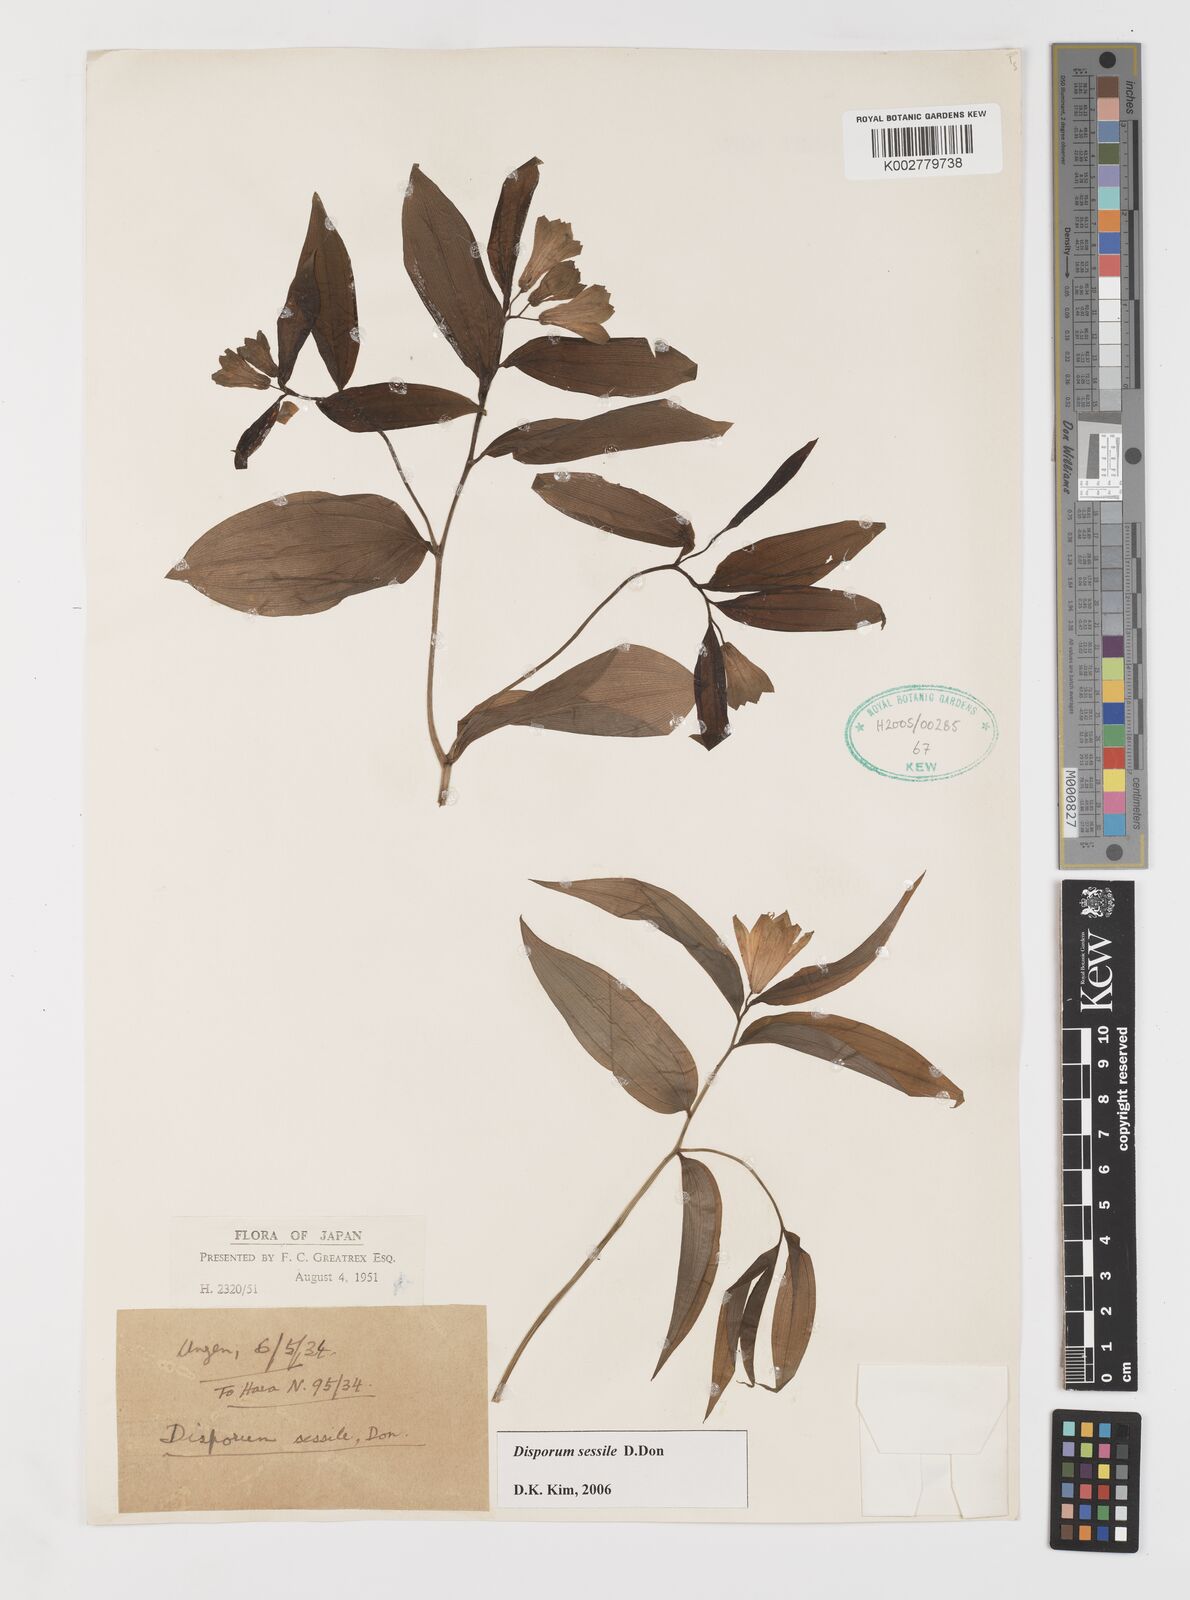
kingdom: Plantae
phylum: Tracheophyta
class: Liliopsida
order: Liliales
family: Colchicaceae
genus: Disporum
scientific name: Disporum sessile
